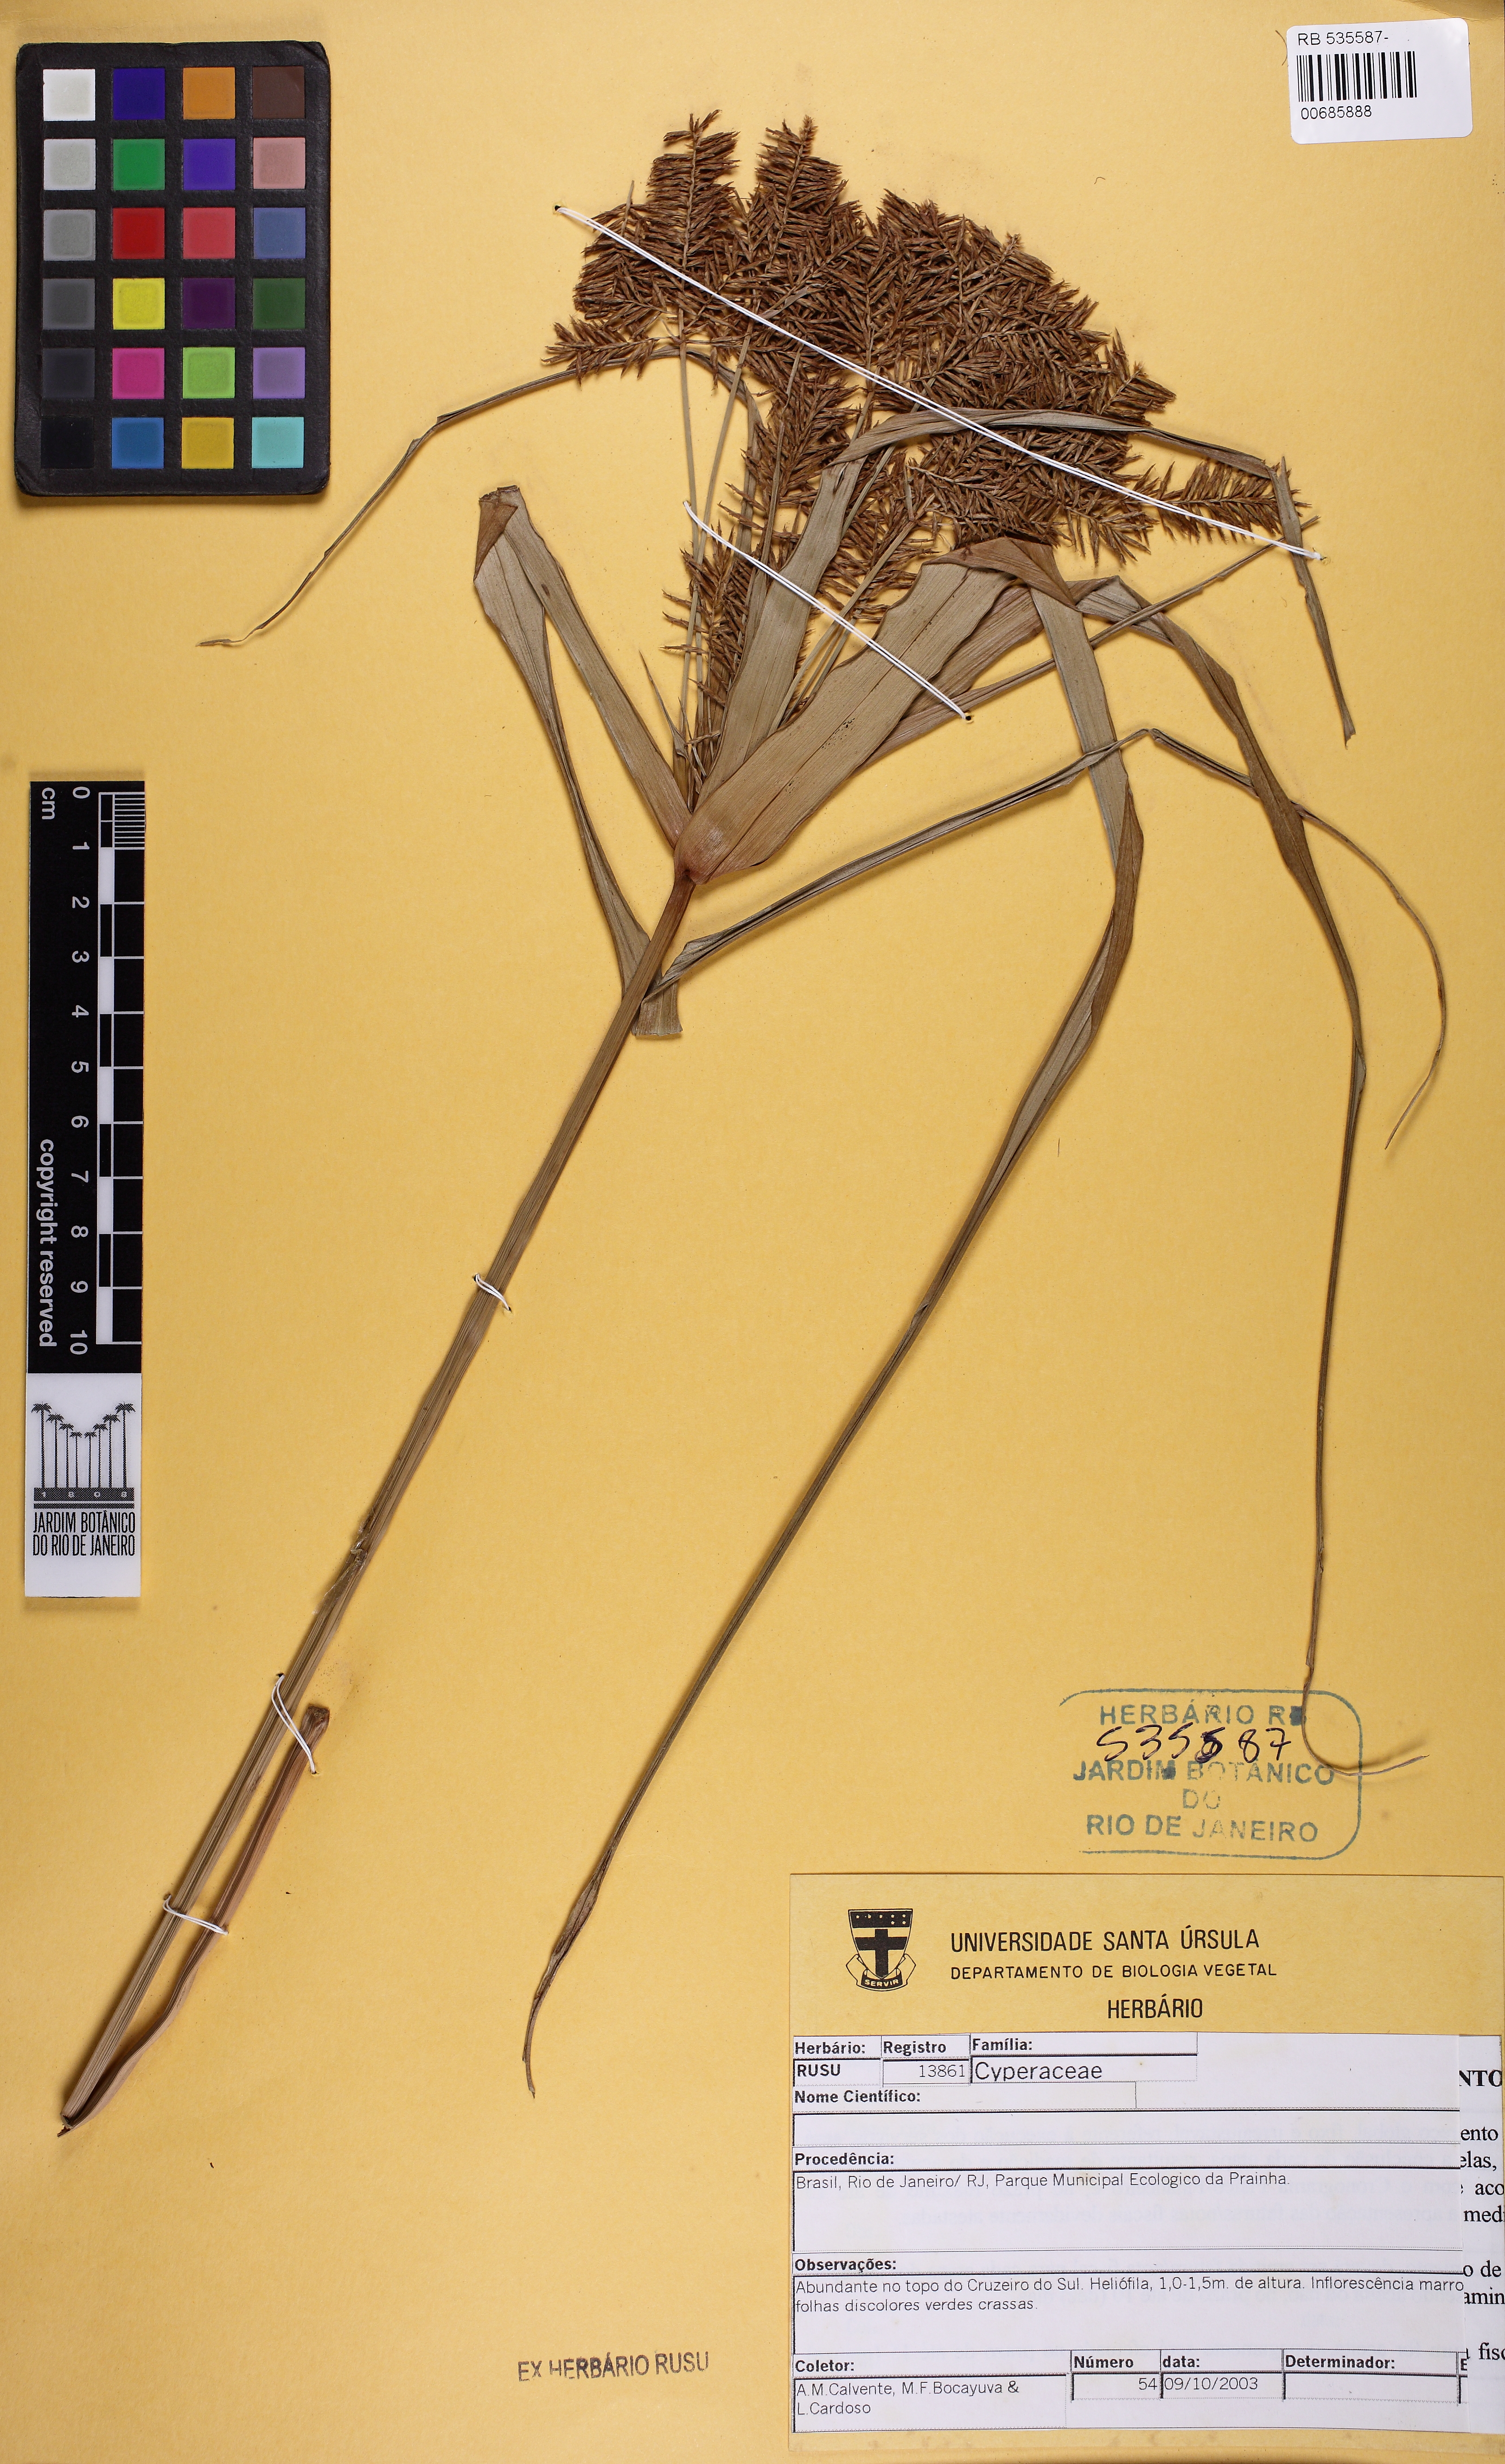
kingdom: Plantae
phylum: Tracheophyta
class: Liliopsida
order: Poales
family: Cyperaceae
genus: Cyperus
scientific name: Cyperus hermaphroditus
